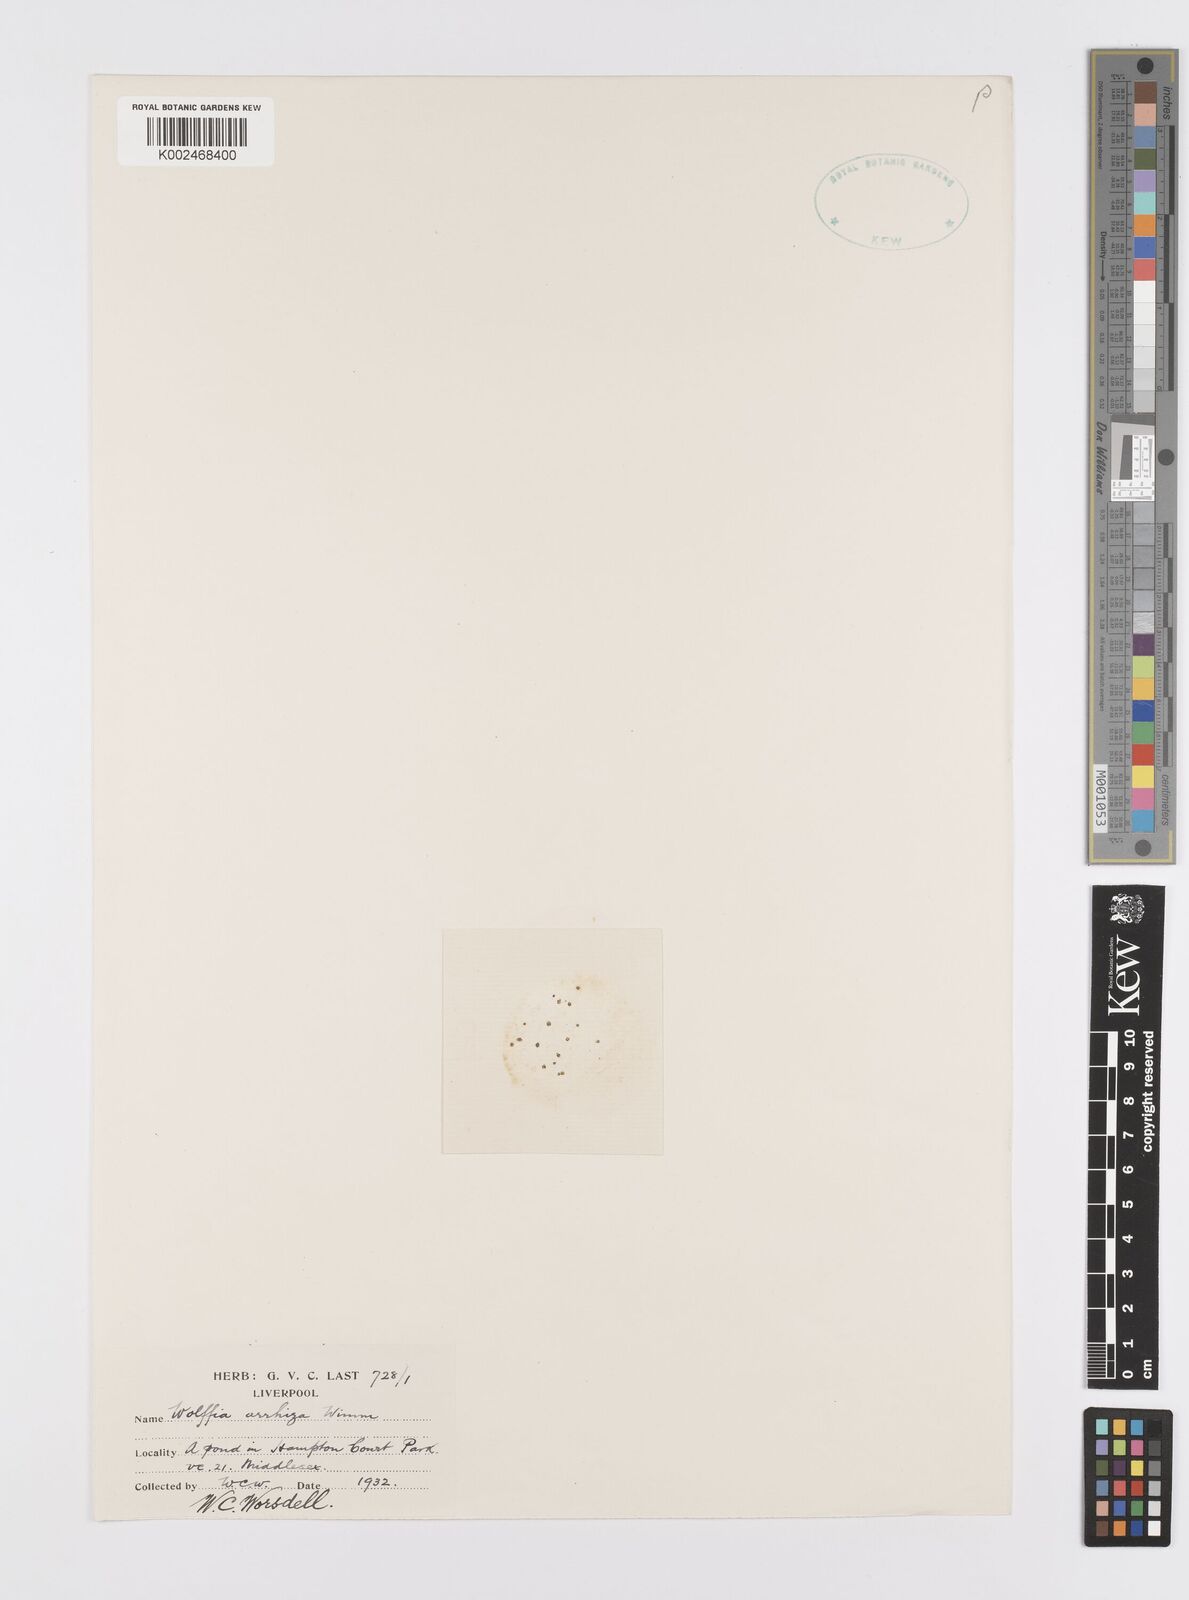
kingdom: Plantae
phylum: Tracheophyta
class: Liliopsida
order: Alismatales
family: Araceae
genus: Wolffia
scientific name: Wolffia arrhiza
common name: Rootless duckweed
